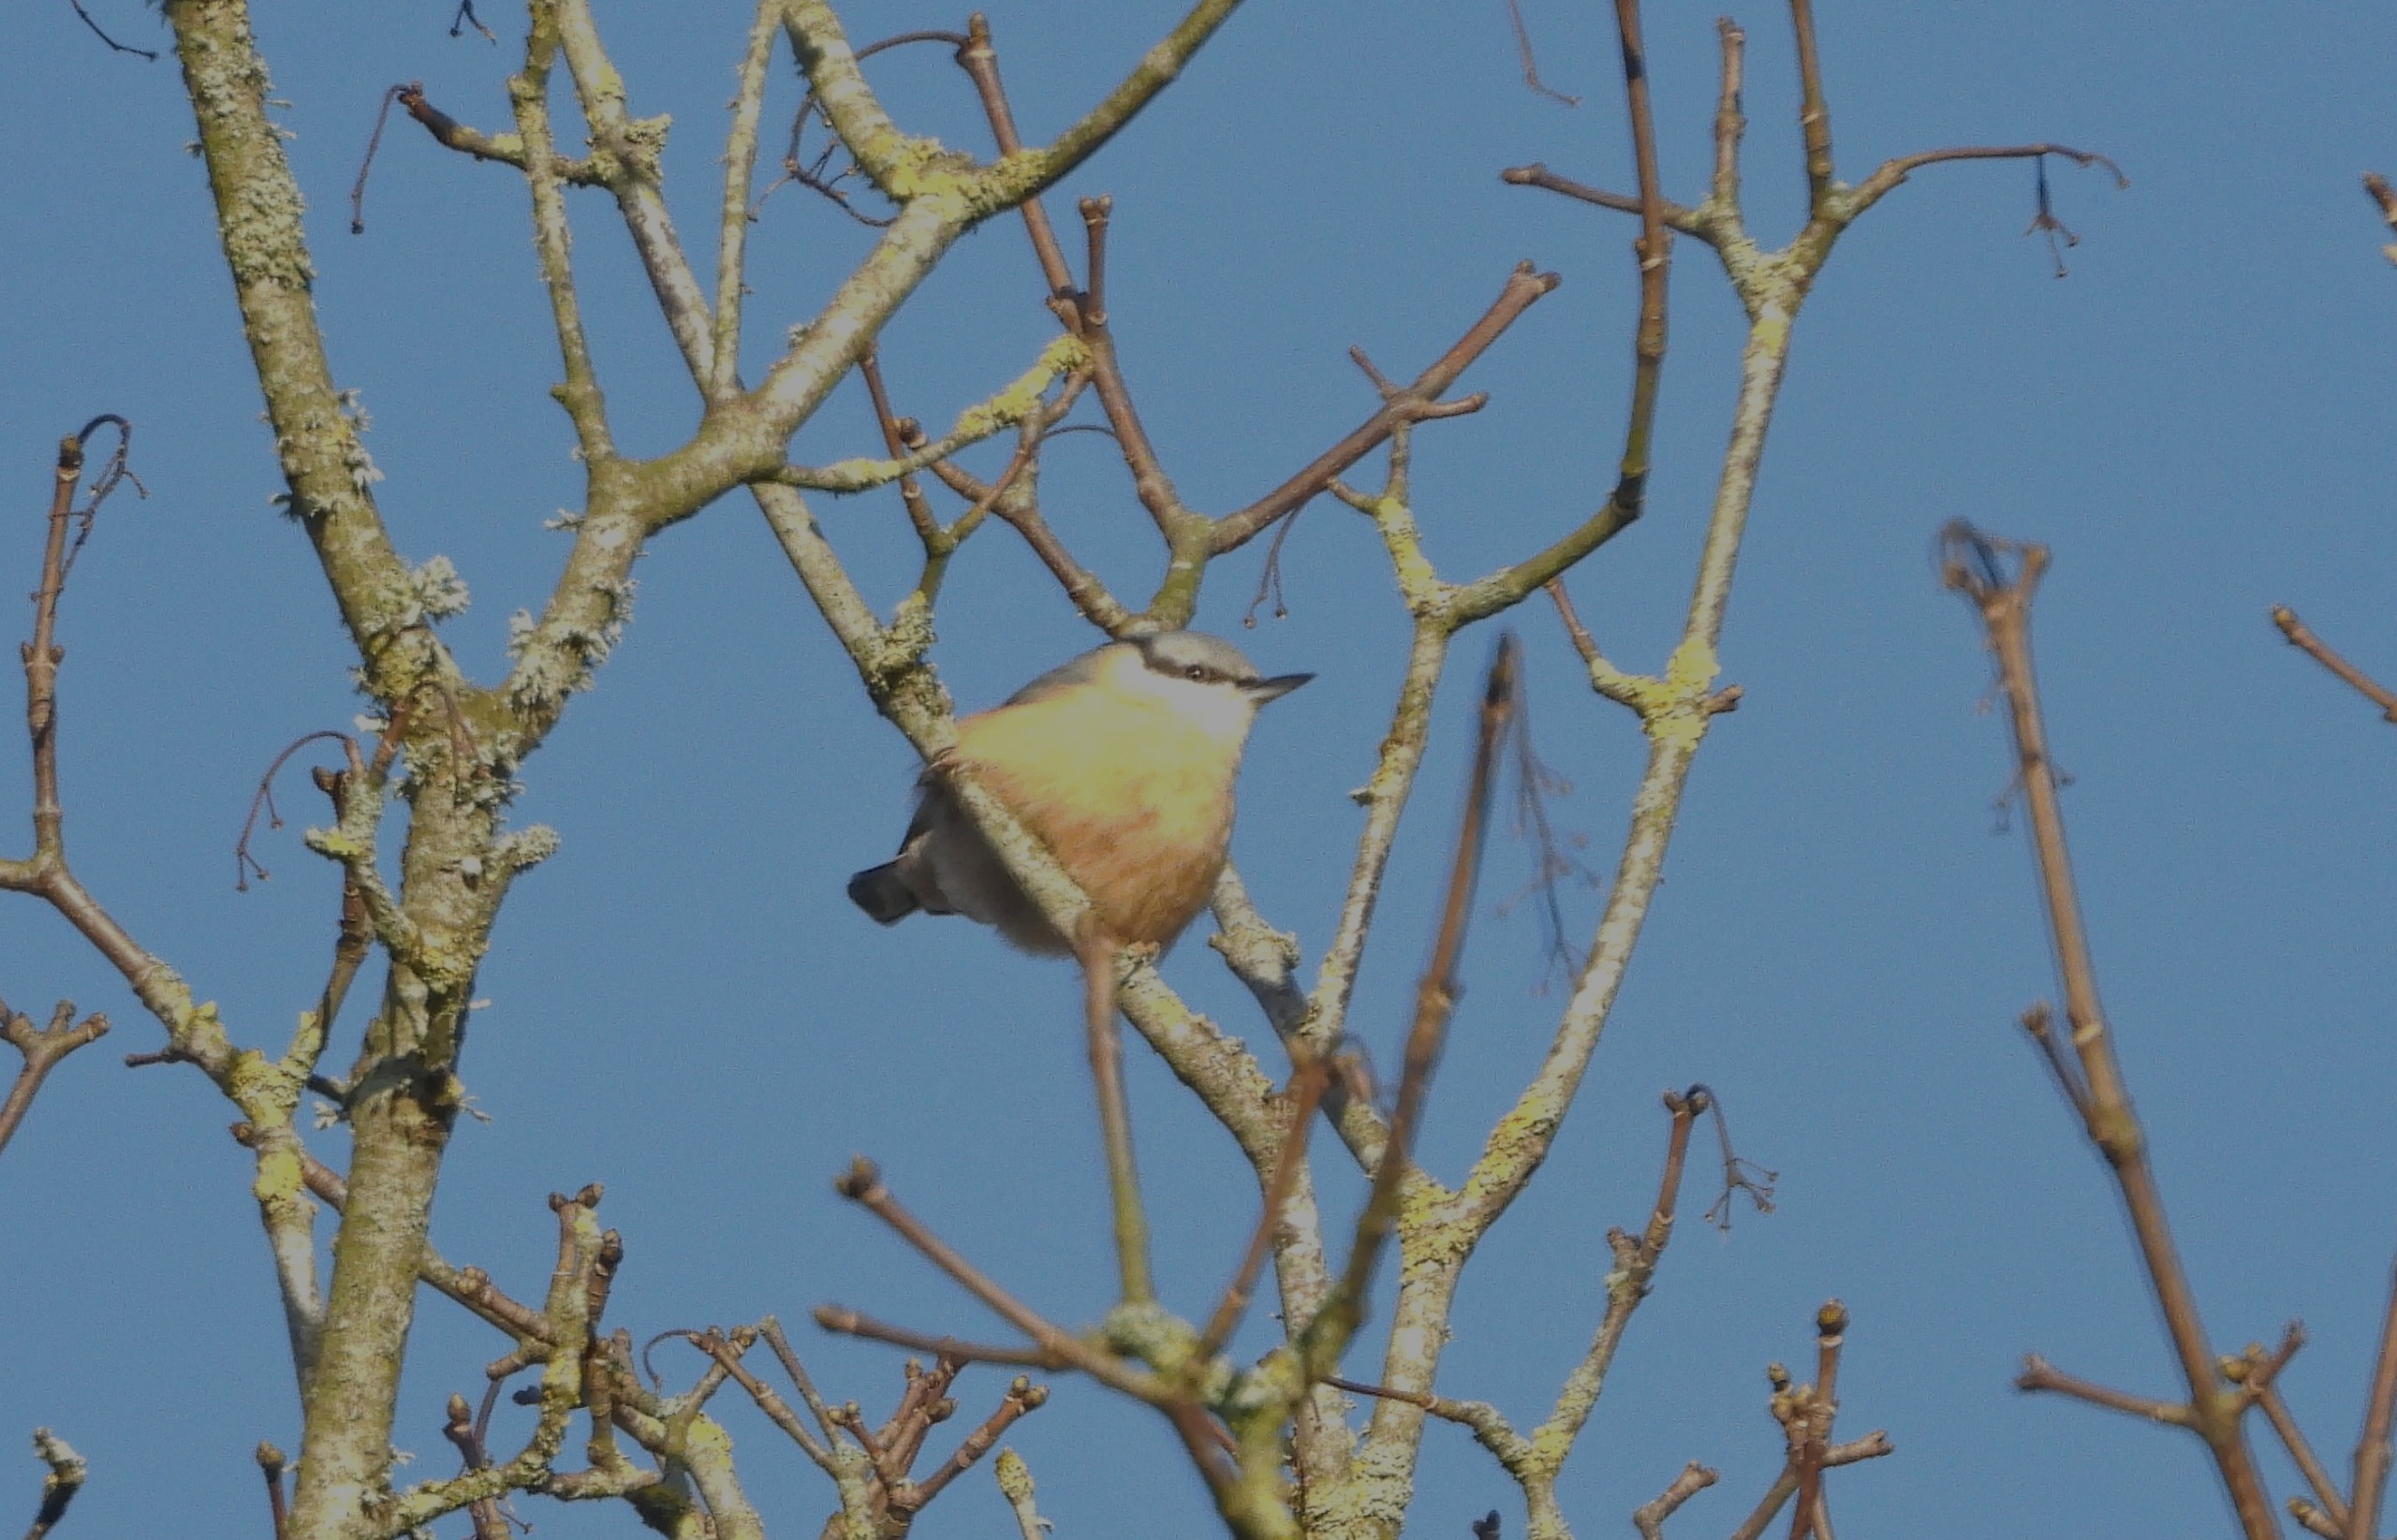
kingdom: Animalia
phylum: Chordata
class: Aves
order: Passeriformes
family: Sittidae
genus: Sitta
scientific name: Sitta europaea
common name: Spætmejse
